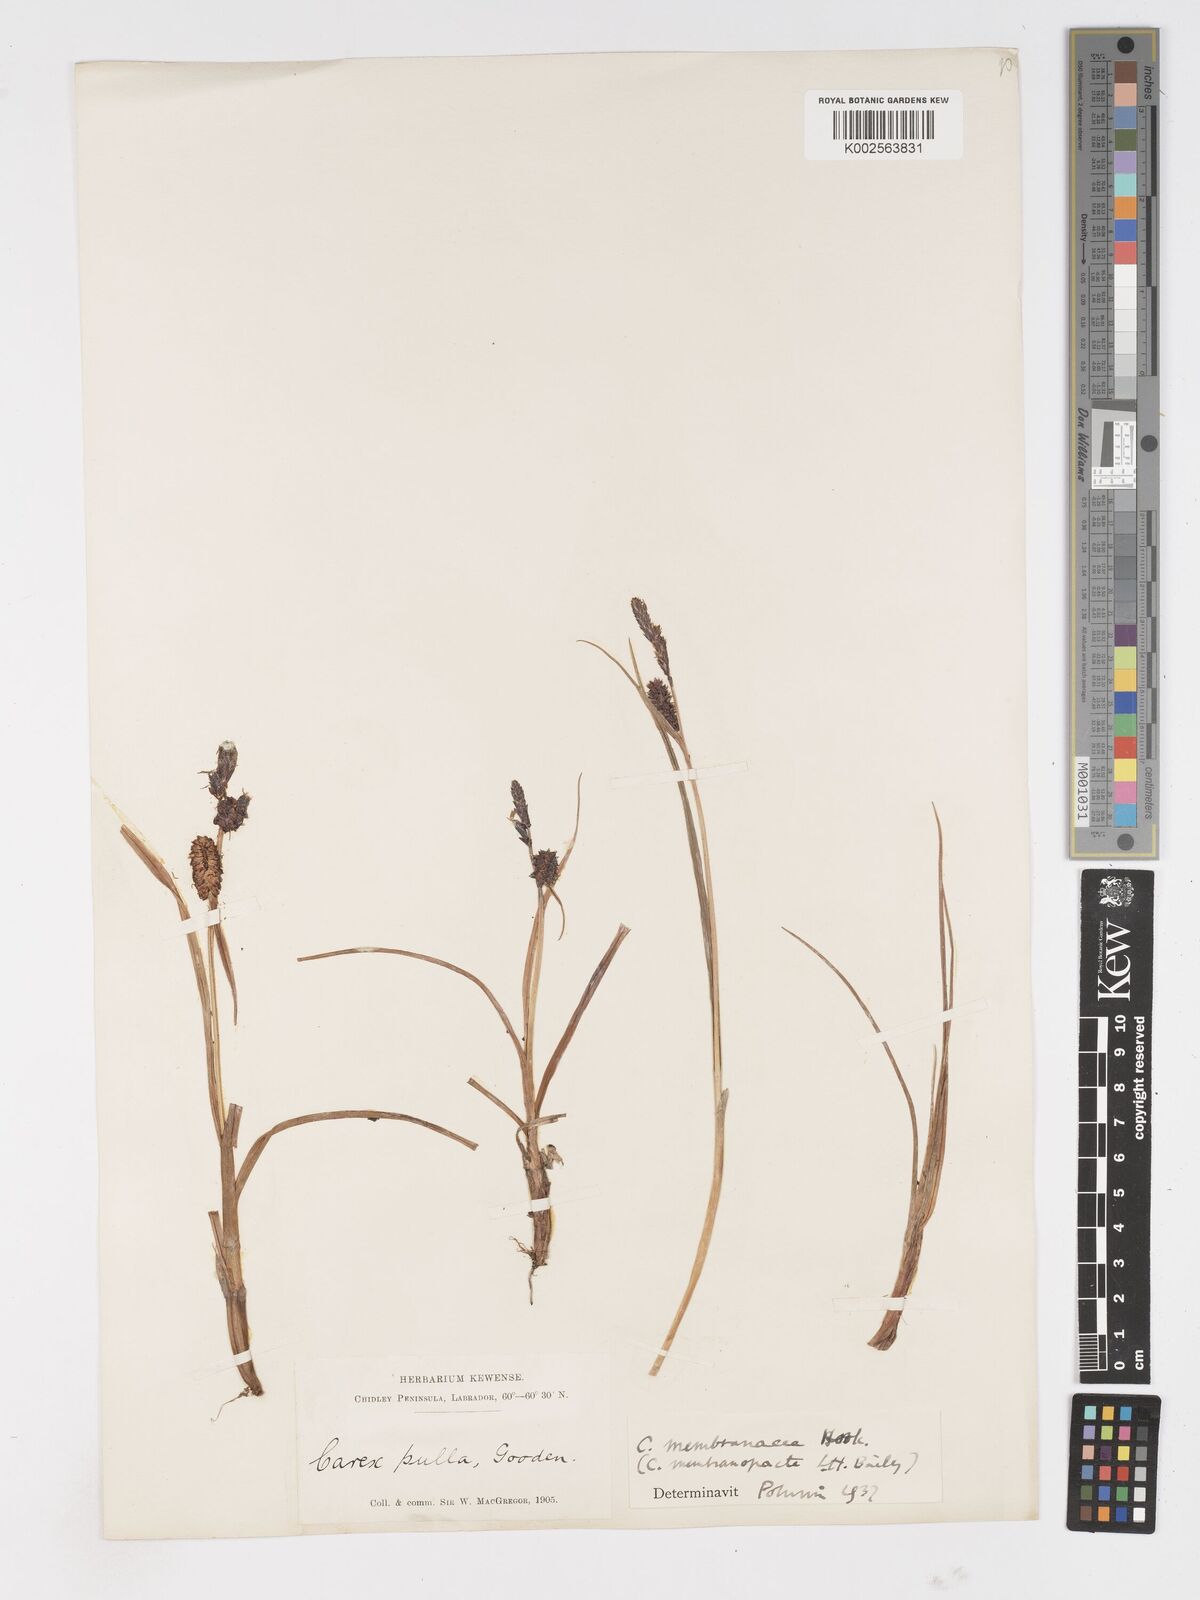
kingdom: Plantae
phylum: Tracheophyta
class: Liliopsida
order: Poales
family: Cyperaceae
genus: Carex
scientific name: Carex membranacea
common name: Fragile sedge
